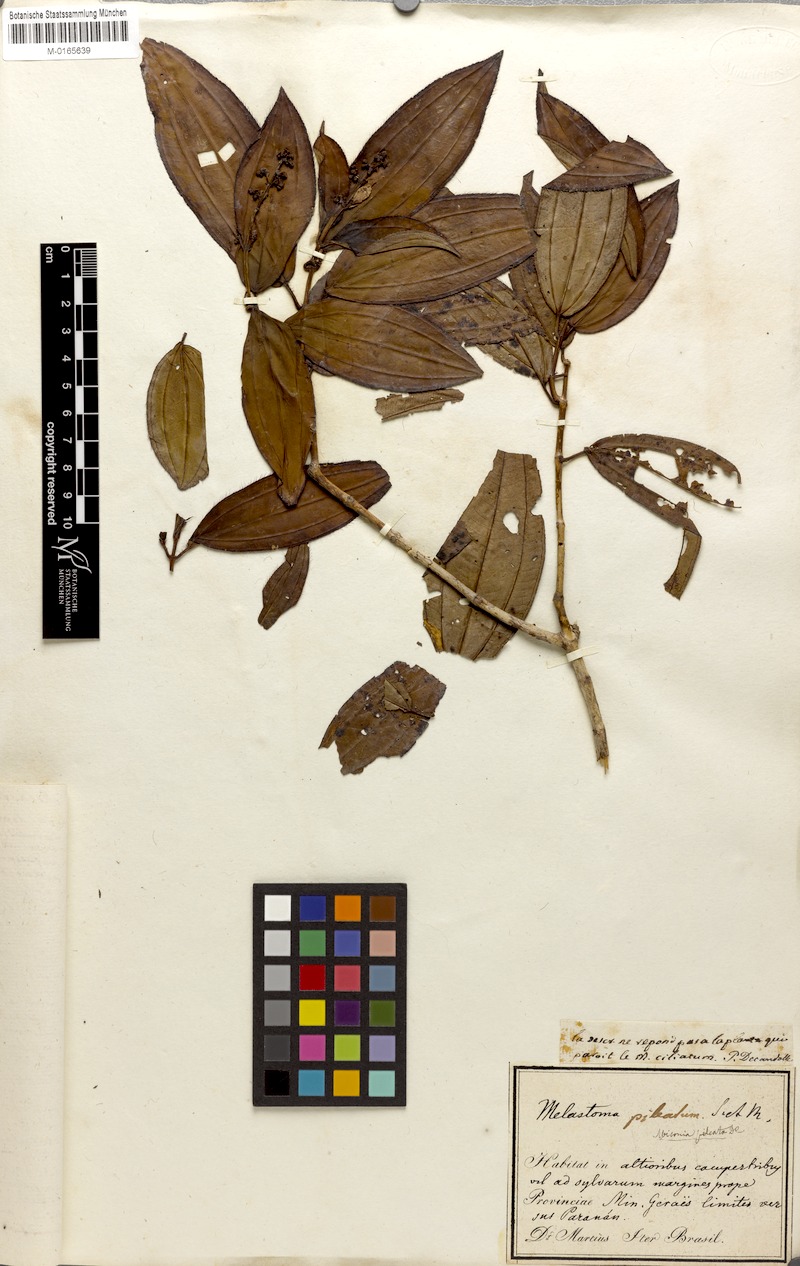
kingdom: Plantae
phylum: Tracheophyta
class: Magnoliopsida
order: Myrtales
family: Melastomataceae
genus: Miconia
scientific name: Miconia pileata
